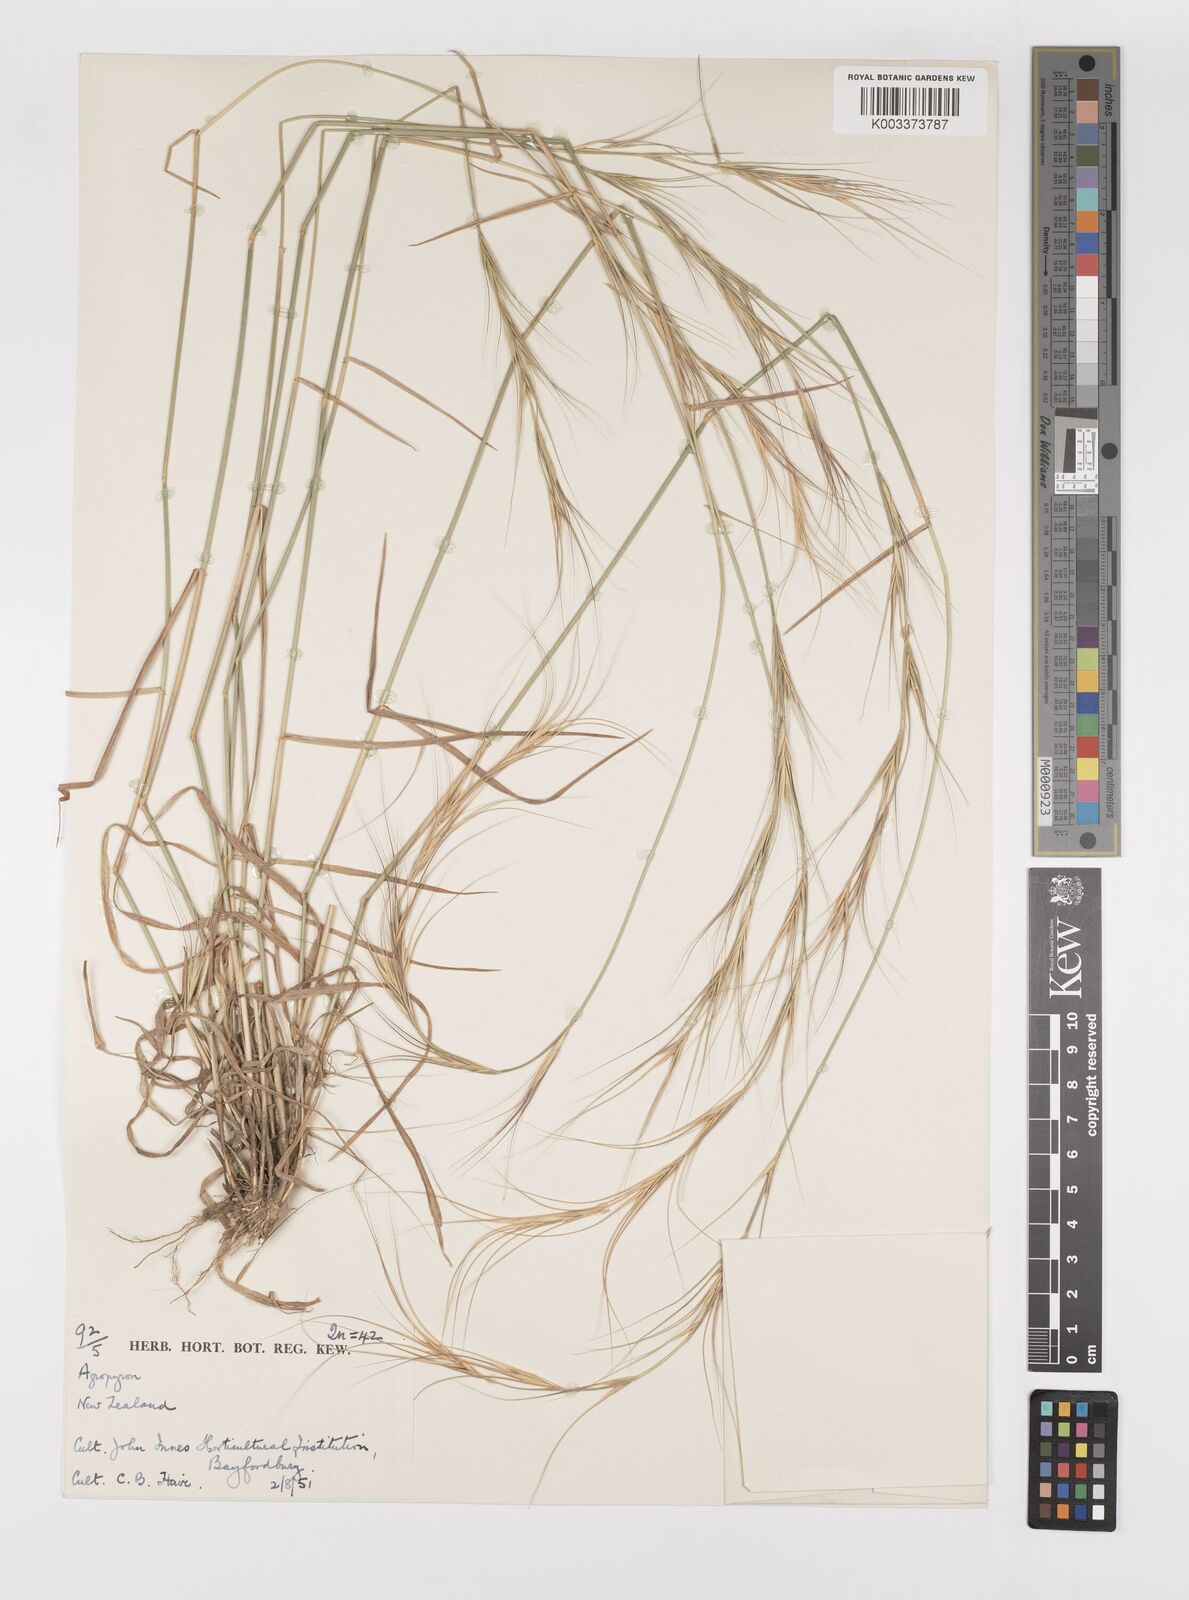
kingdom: Plantae
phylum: Tracheophyta
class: Liliopsida
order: Poales
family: Poaceae
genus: Elymus
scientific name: Elymus
